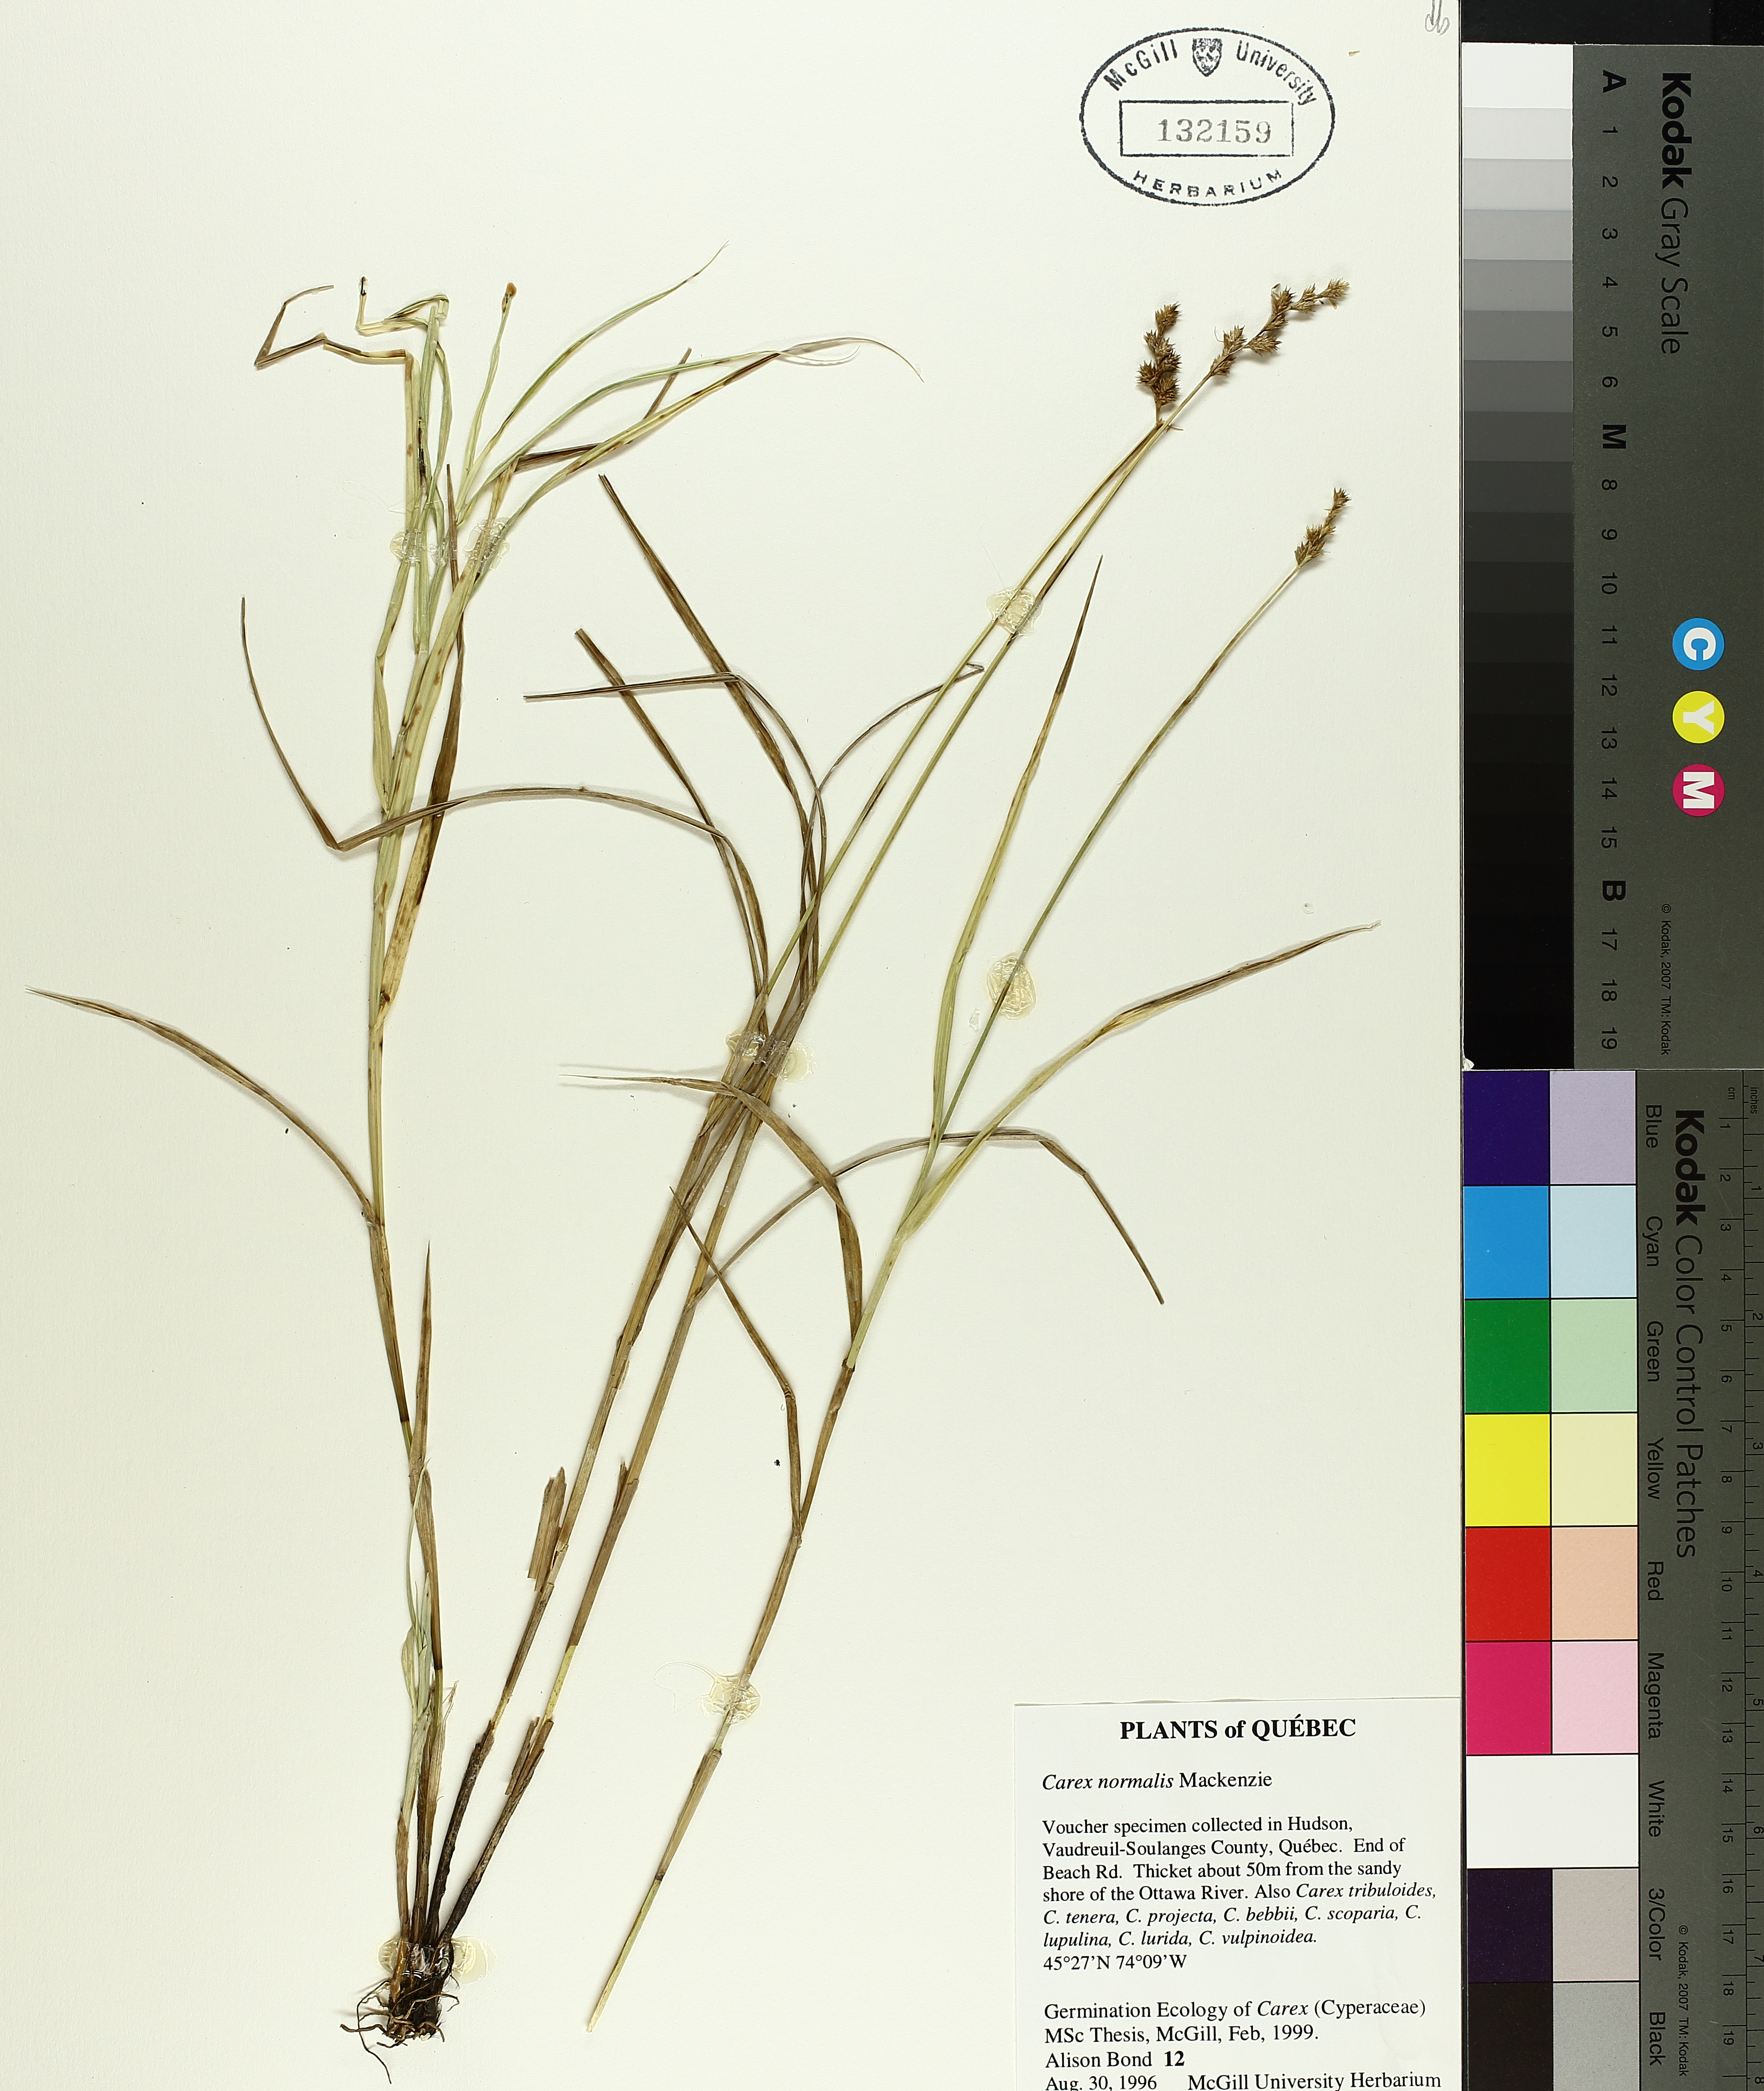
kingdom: Plantae
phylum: Tracheophyta
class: Liliopsida
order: Poales
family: Cyperaceae
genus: Carex
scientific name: Carex normalis
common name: Greater straw sedge
